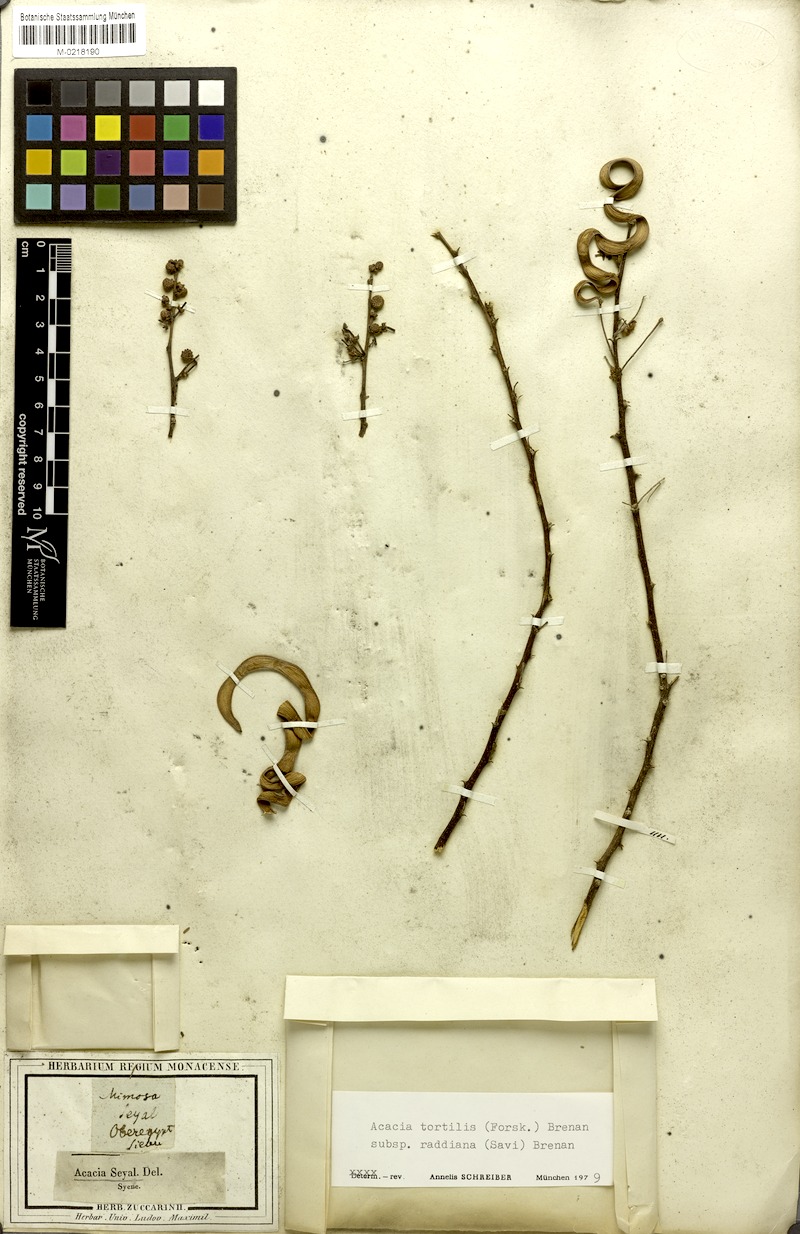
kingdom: Plantae
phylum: Tracheophyta
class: Magnoliopsida
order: Fabales
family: Fabaceae
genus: Vachellia
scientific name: Vachellia tortilis
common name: Umbrella thorn acacia
